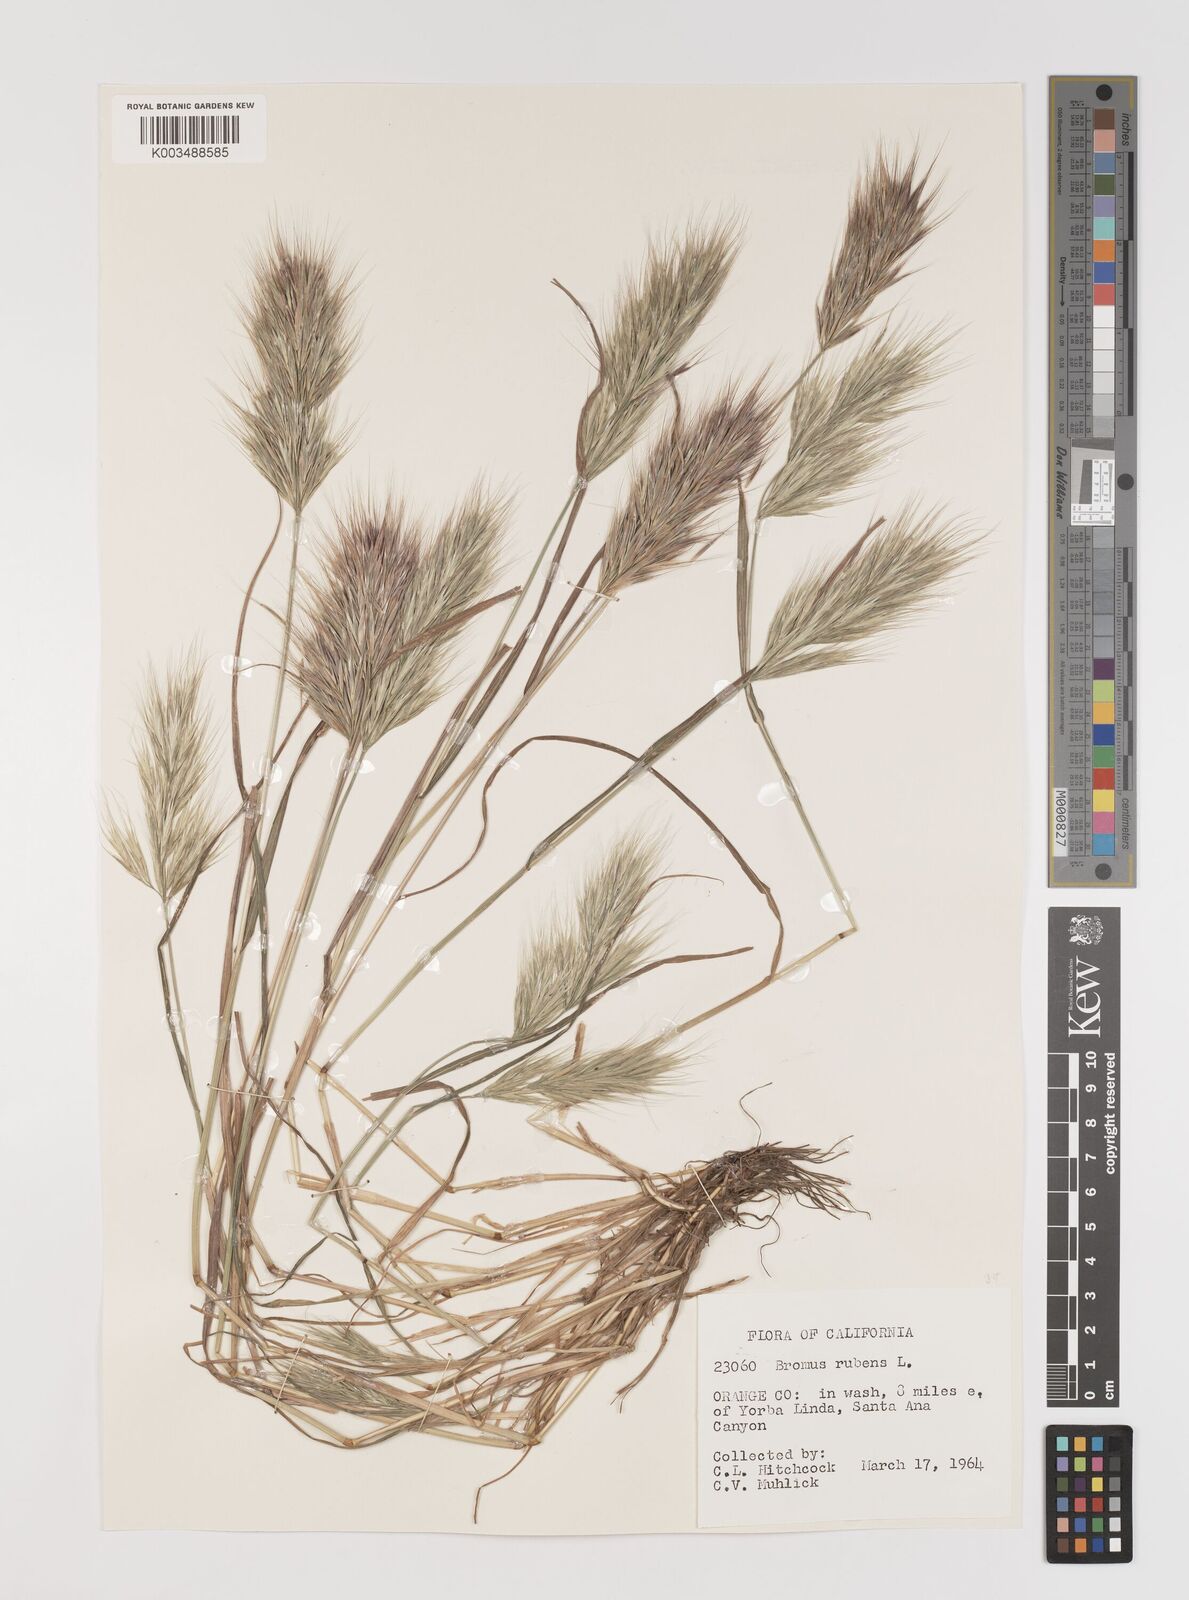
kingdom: Plantae
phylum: Tracheophyta
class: Liliopsida
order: Poales
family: Poaceae
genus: Bromus
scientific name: Bromus rubens
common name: Red brome
